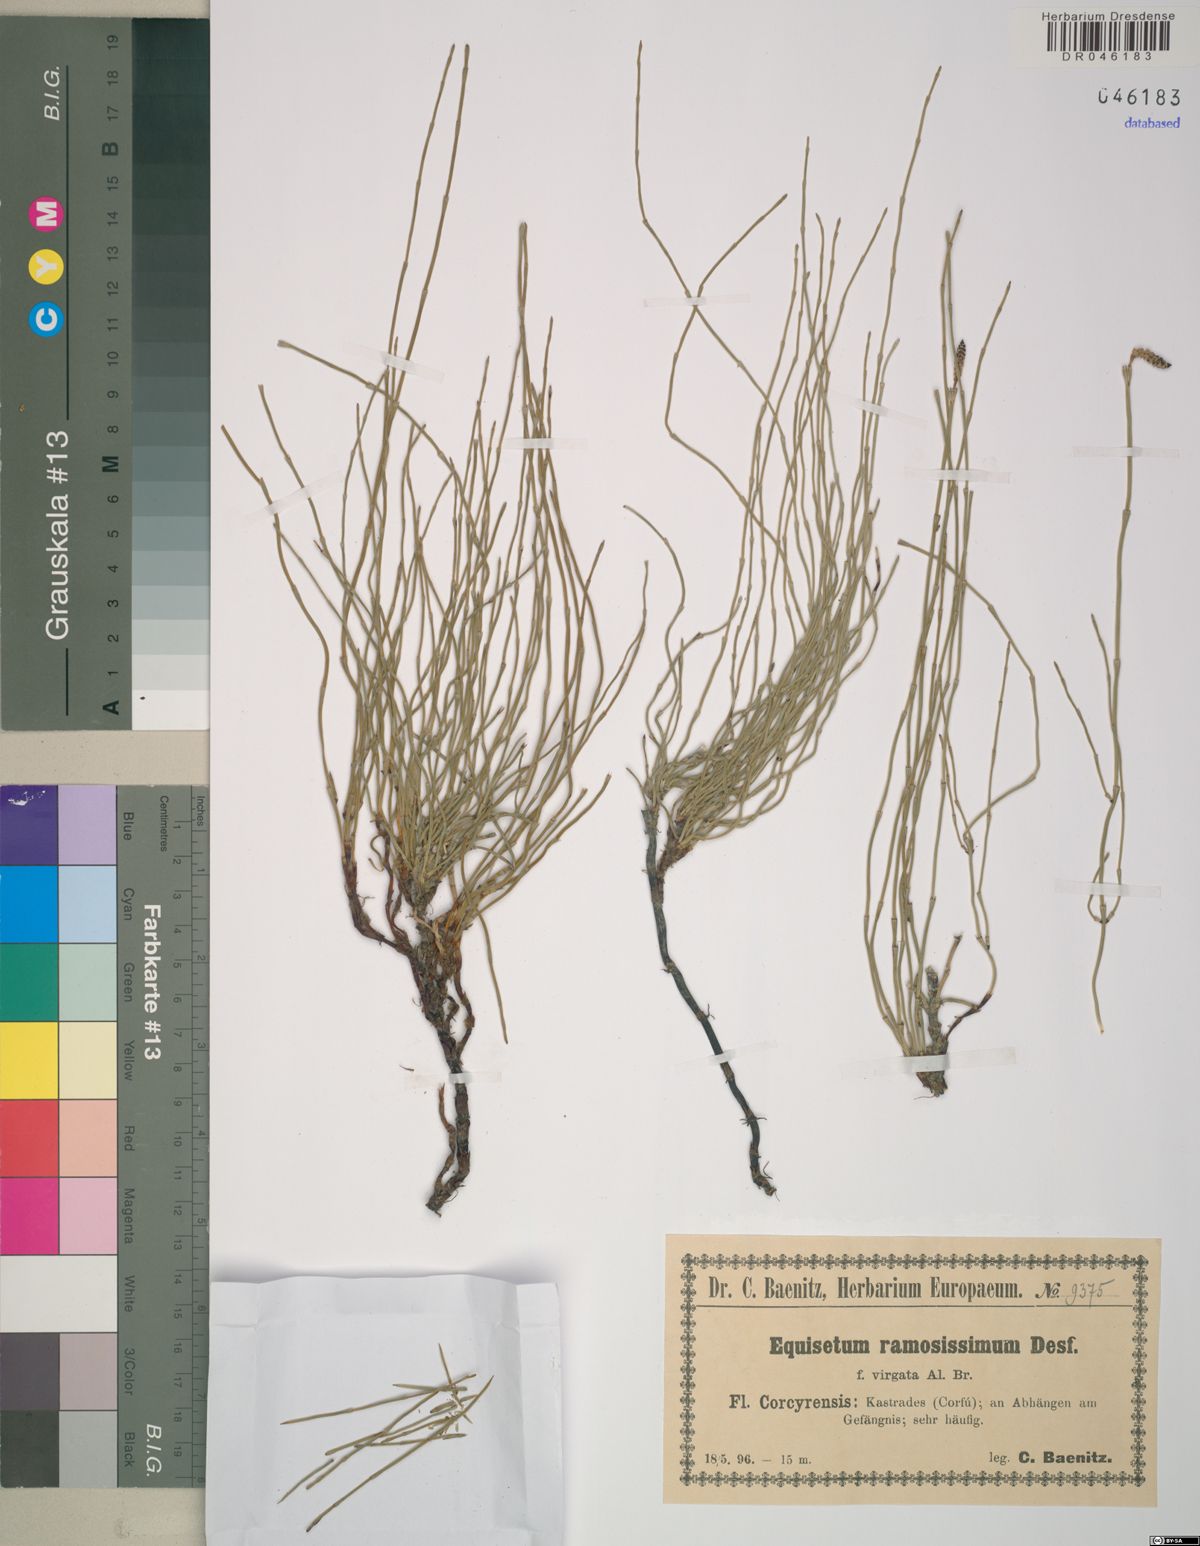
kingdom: Plantae
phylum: Tracheophyta
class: Polypodiopsida
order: Equisetales
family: Equisetaceae
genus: Equisetum
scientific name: Equisetum ramosissimum
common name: Branched horsetail
